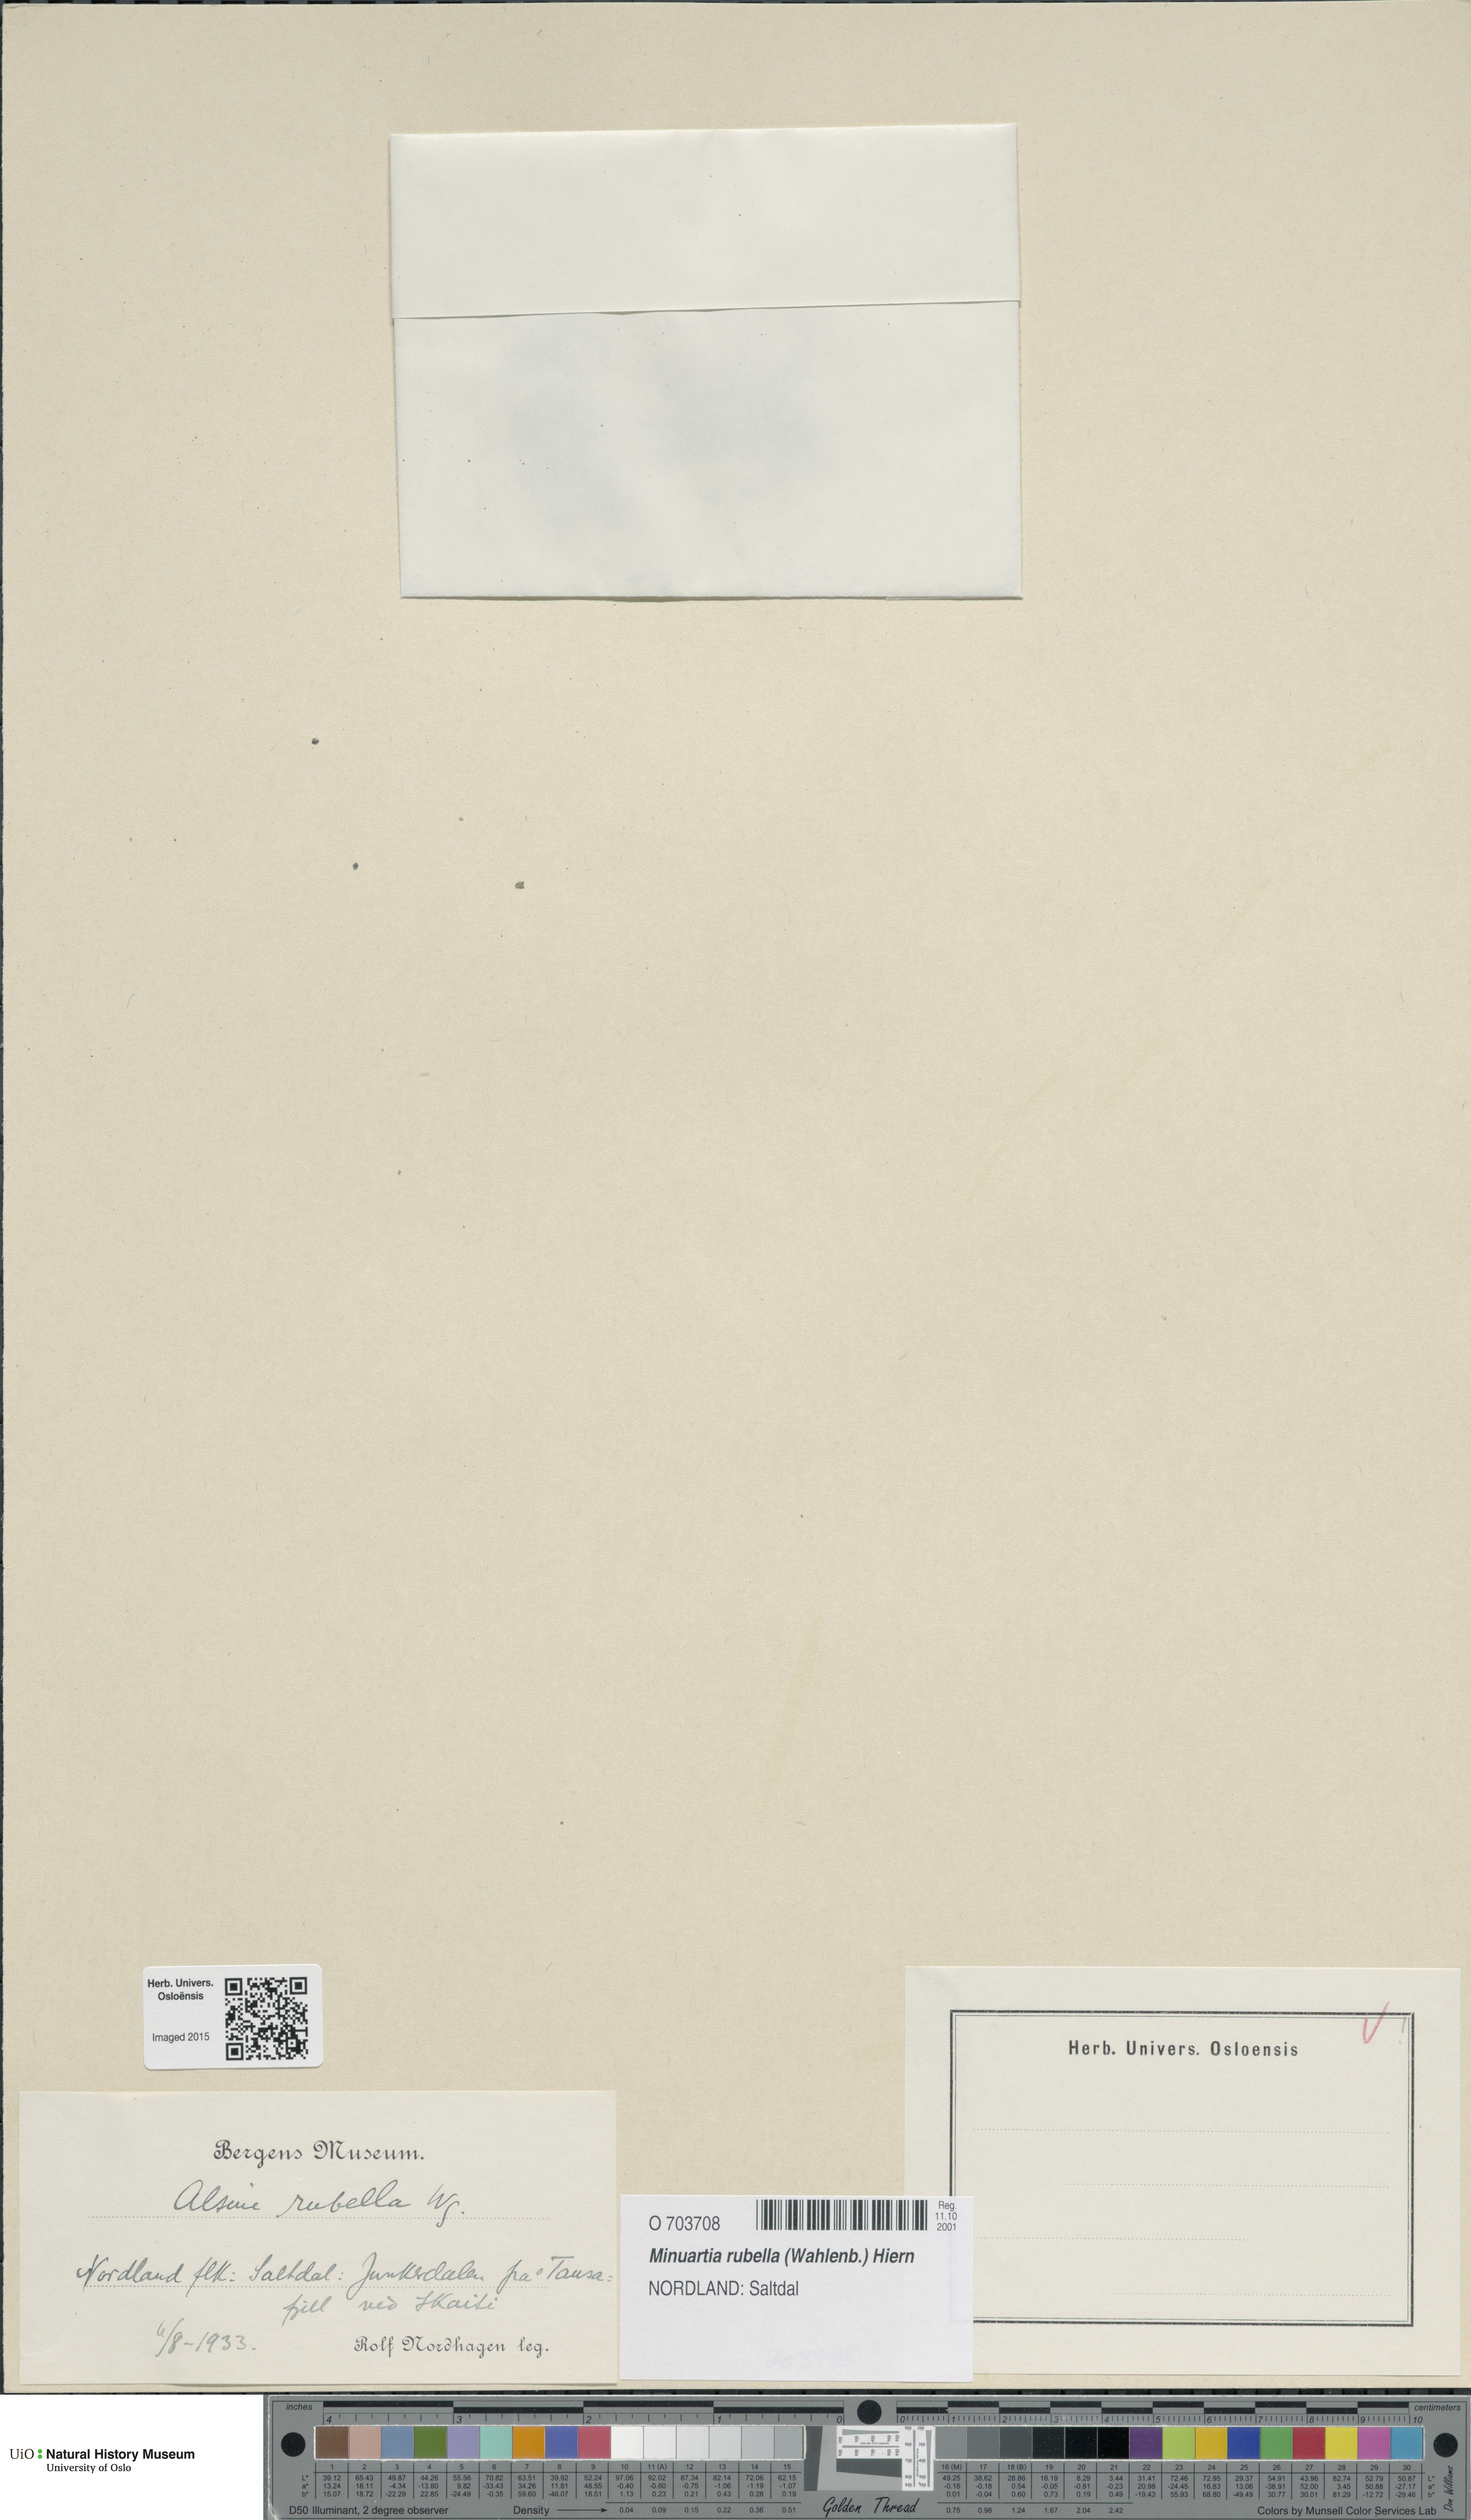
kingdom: Plantae
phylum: Tracheophyta
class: Magnoliopsida
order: Caryophyllales
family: Caryophyllaceae
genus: Sabulina
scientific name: Sabulina rubella
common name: Beautiful sandwort
